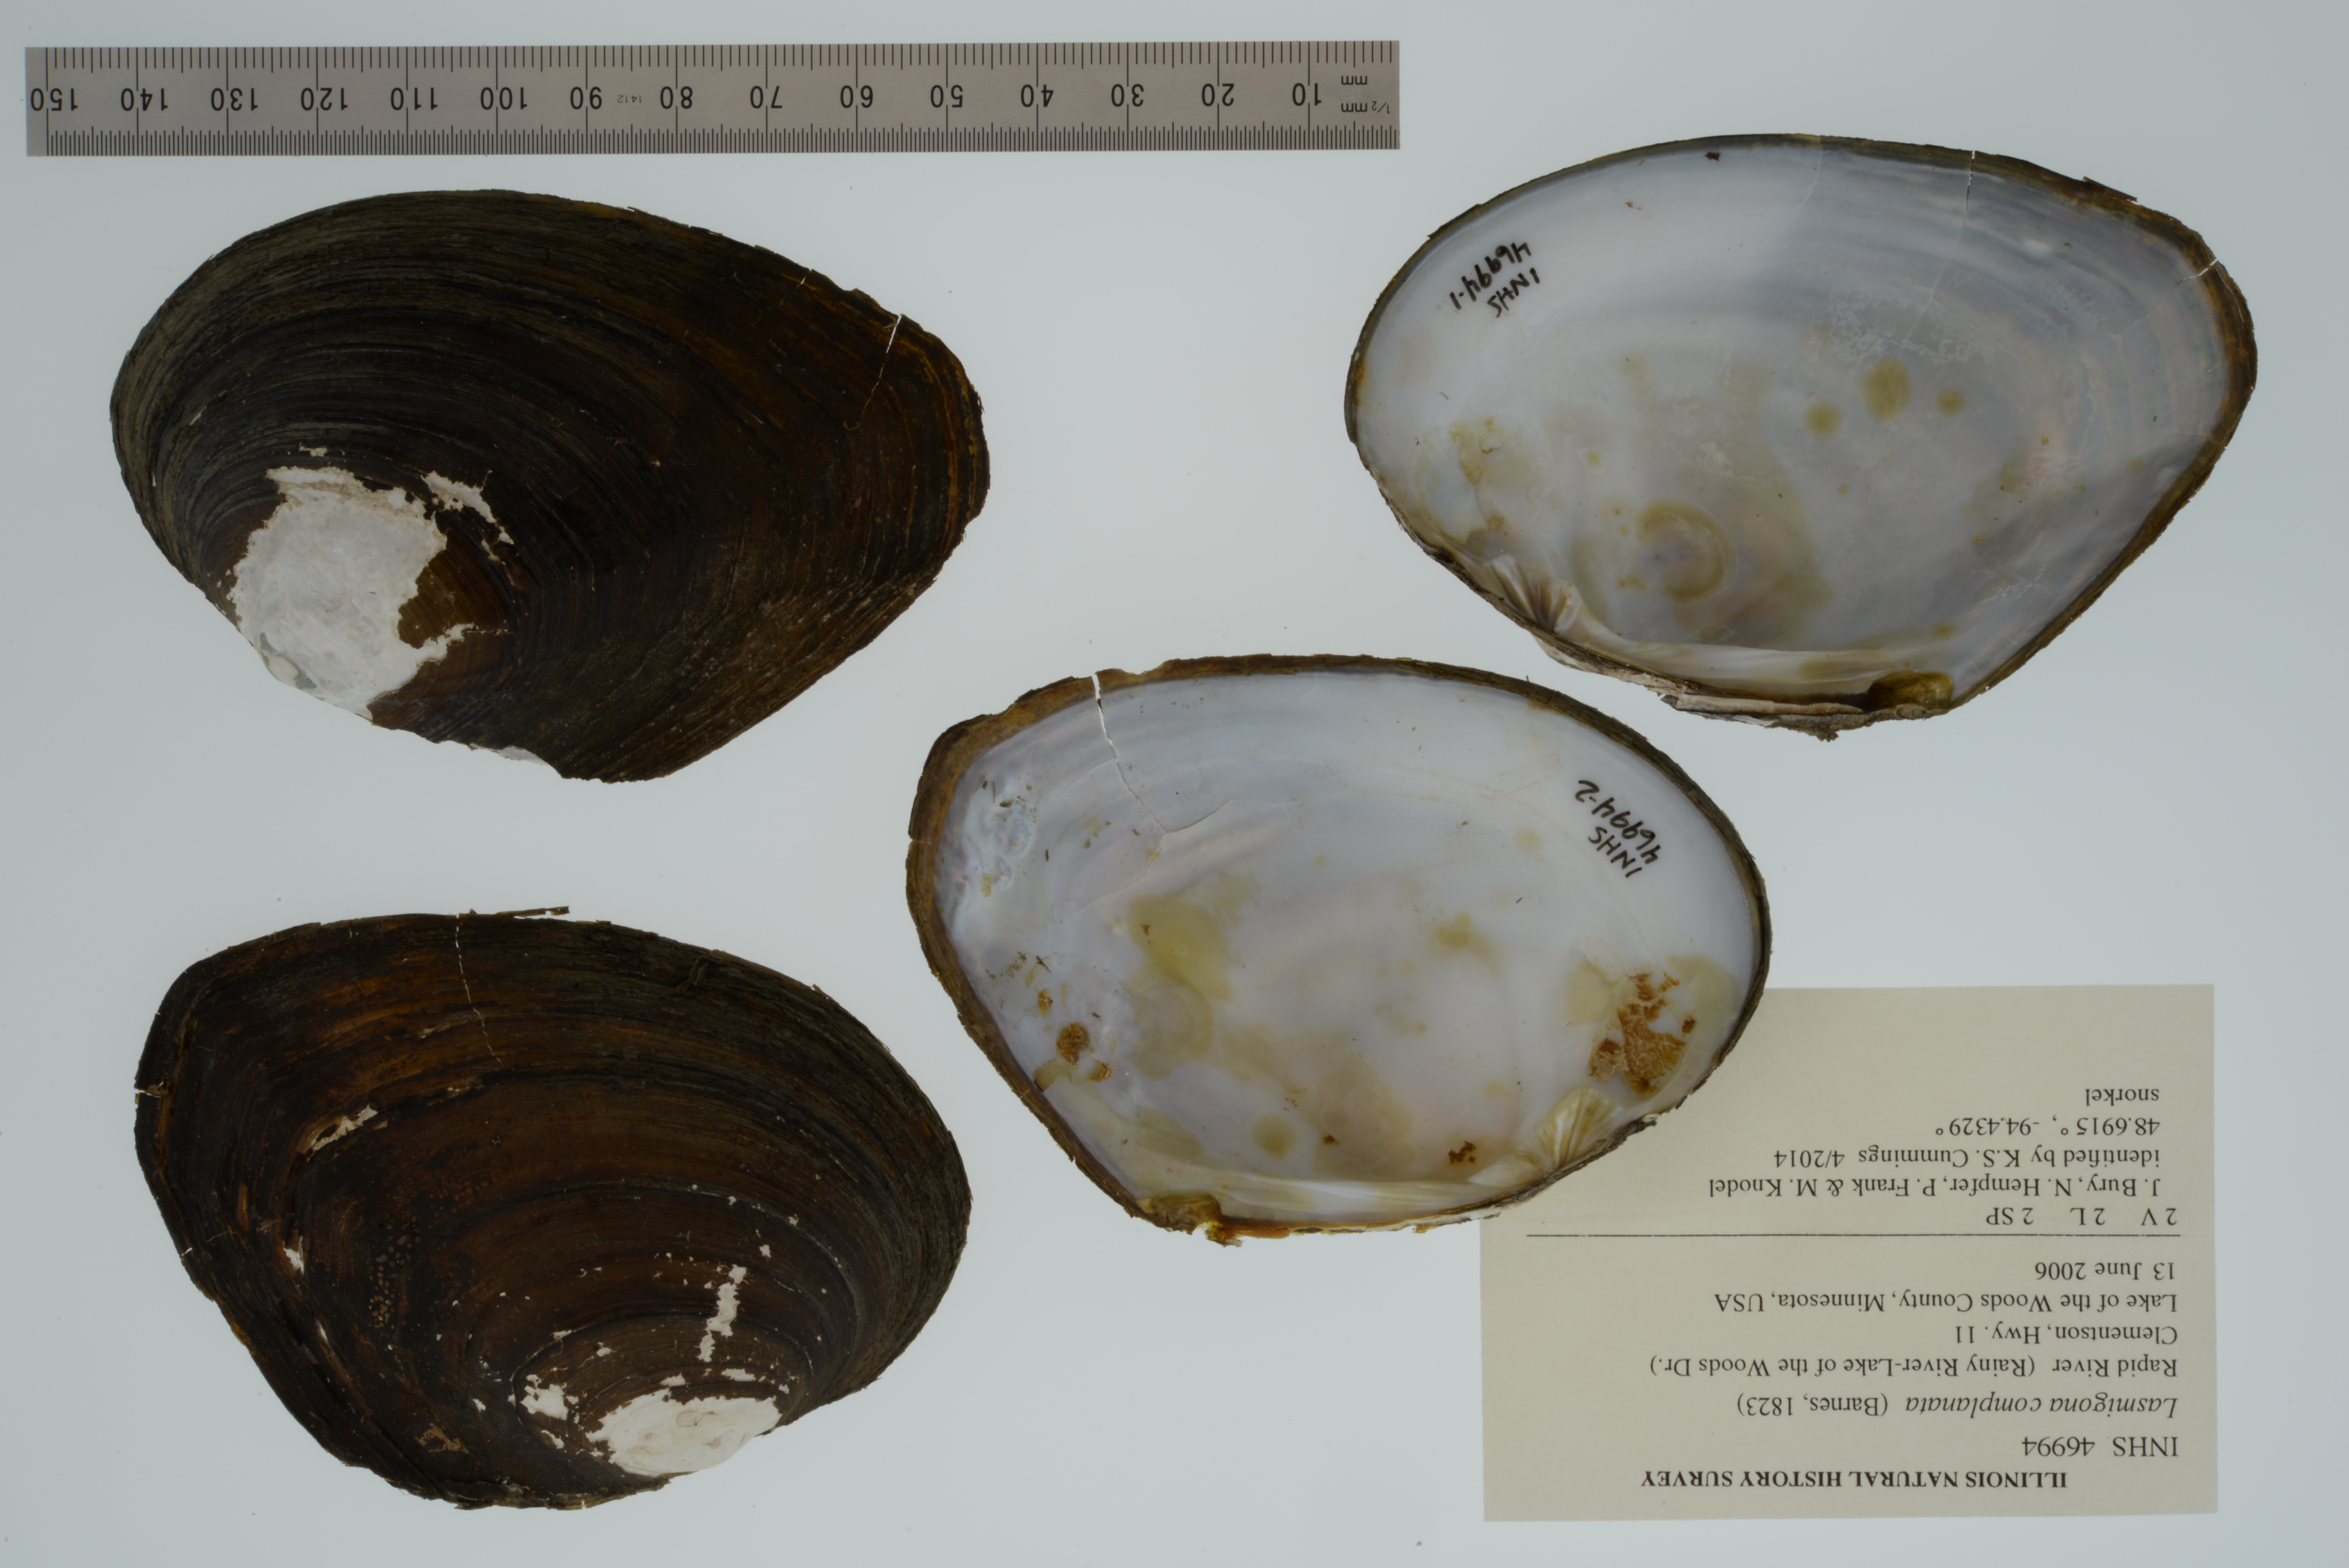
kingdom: Animalia
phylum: Mollusca
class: Bivalvia
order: Unionida
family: Unionidae
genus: Lasmigona
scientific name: Lasmigona complanata
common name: White heelsplitter
